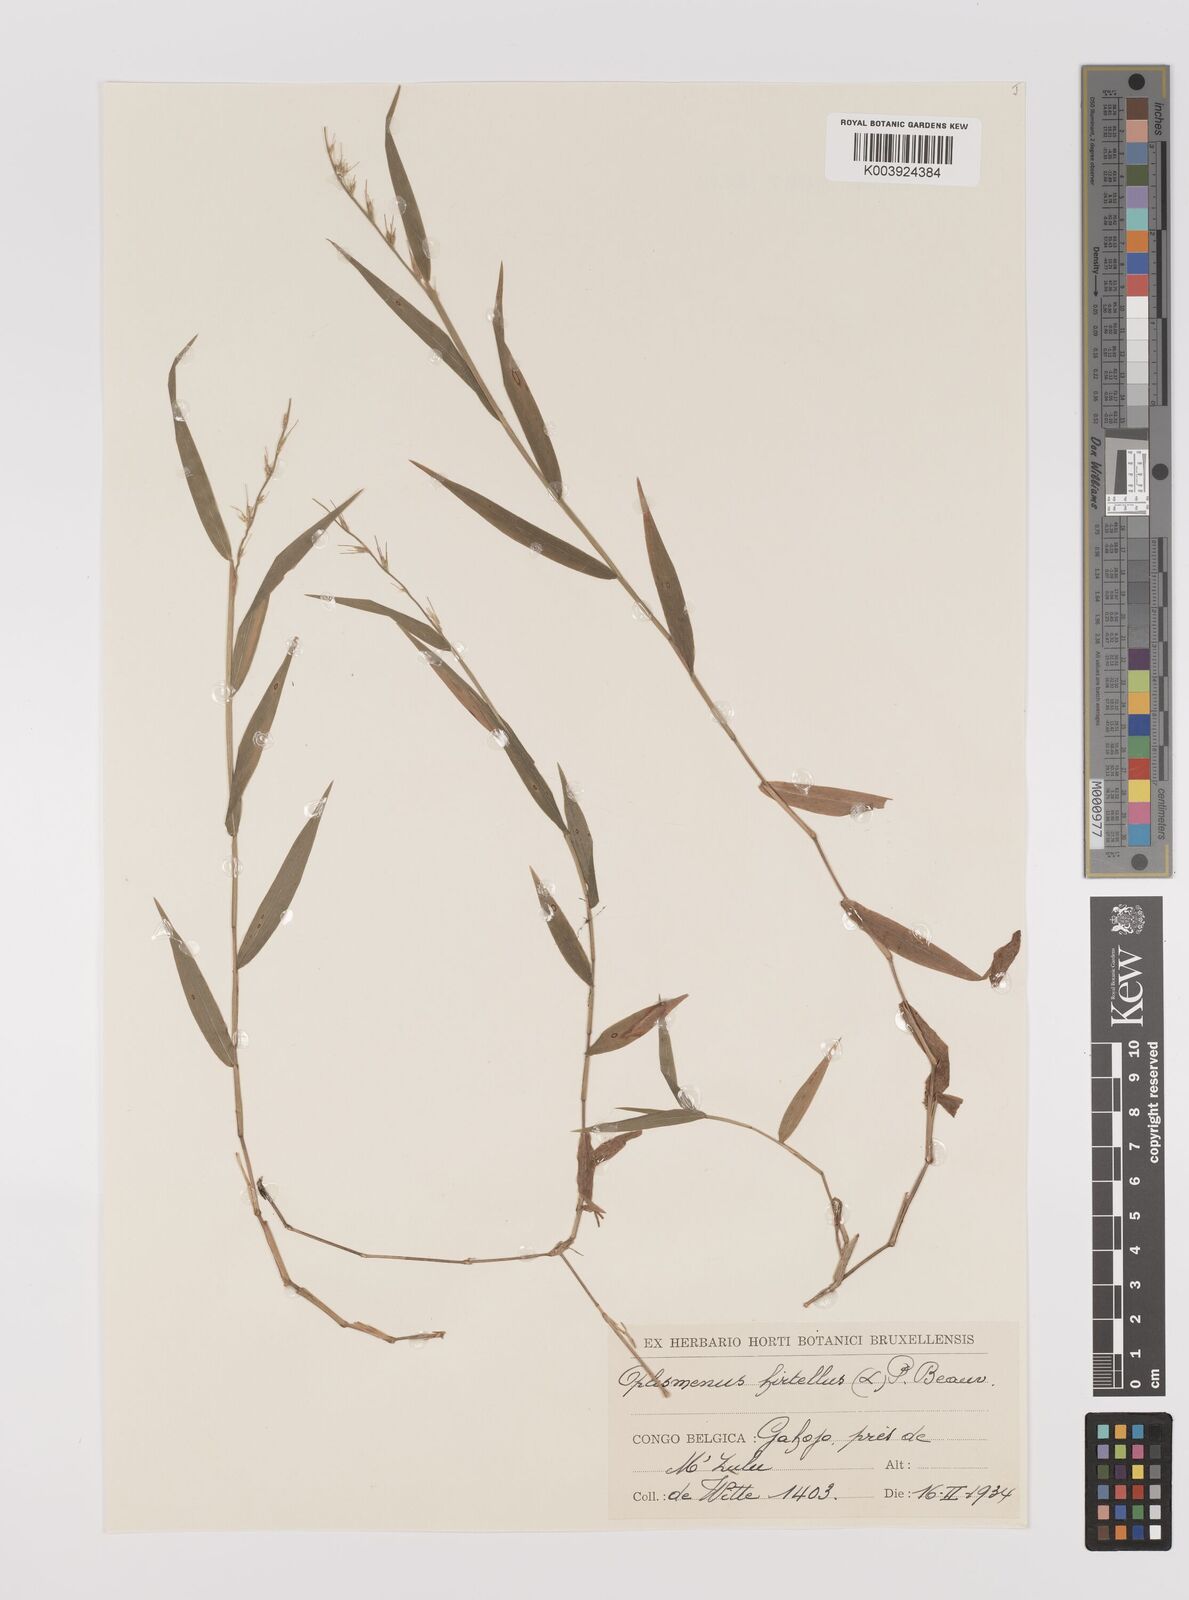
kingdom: Plantae
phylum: Tracheophyta
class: Liliopsida
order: Poales
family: Poaceae
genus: Oplismenus
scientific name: Oplismenus undulatifolius
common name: Wavyleaf basketgrass
